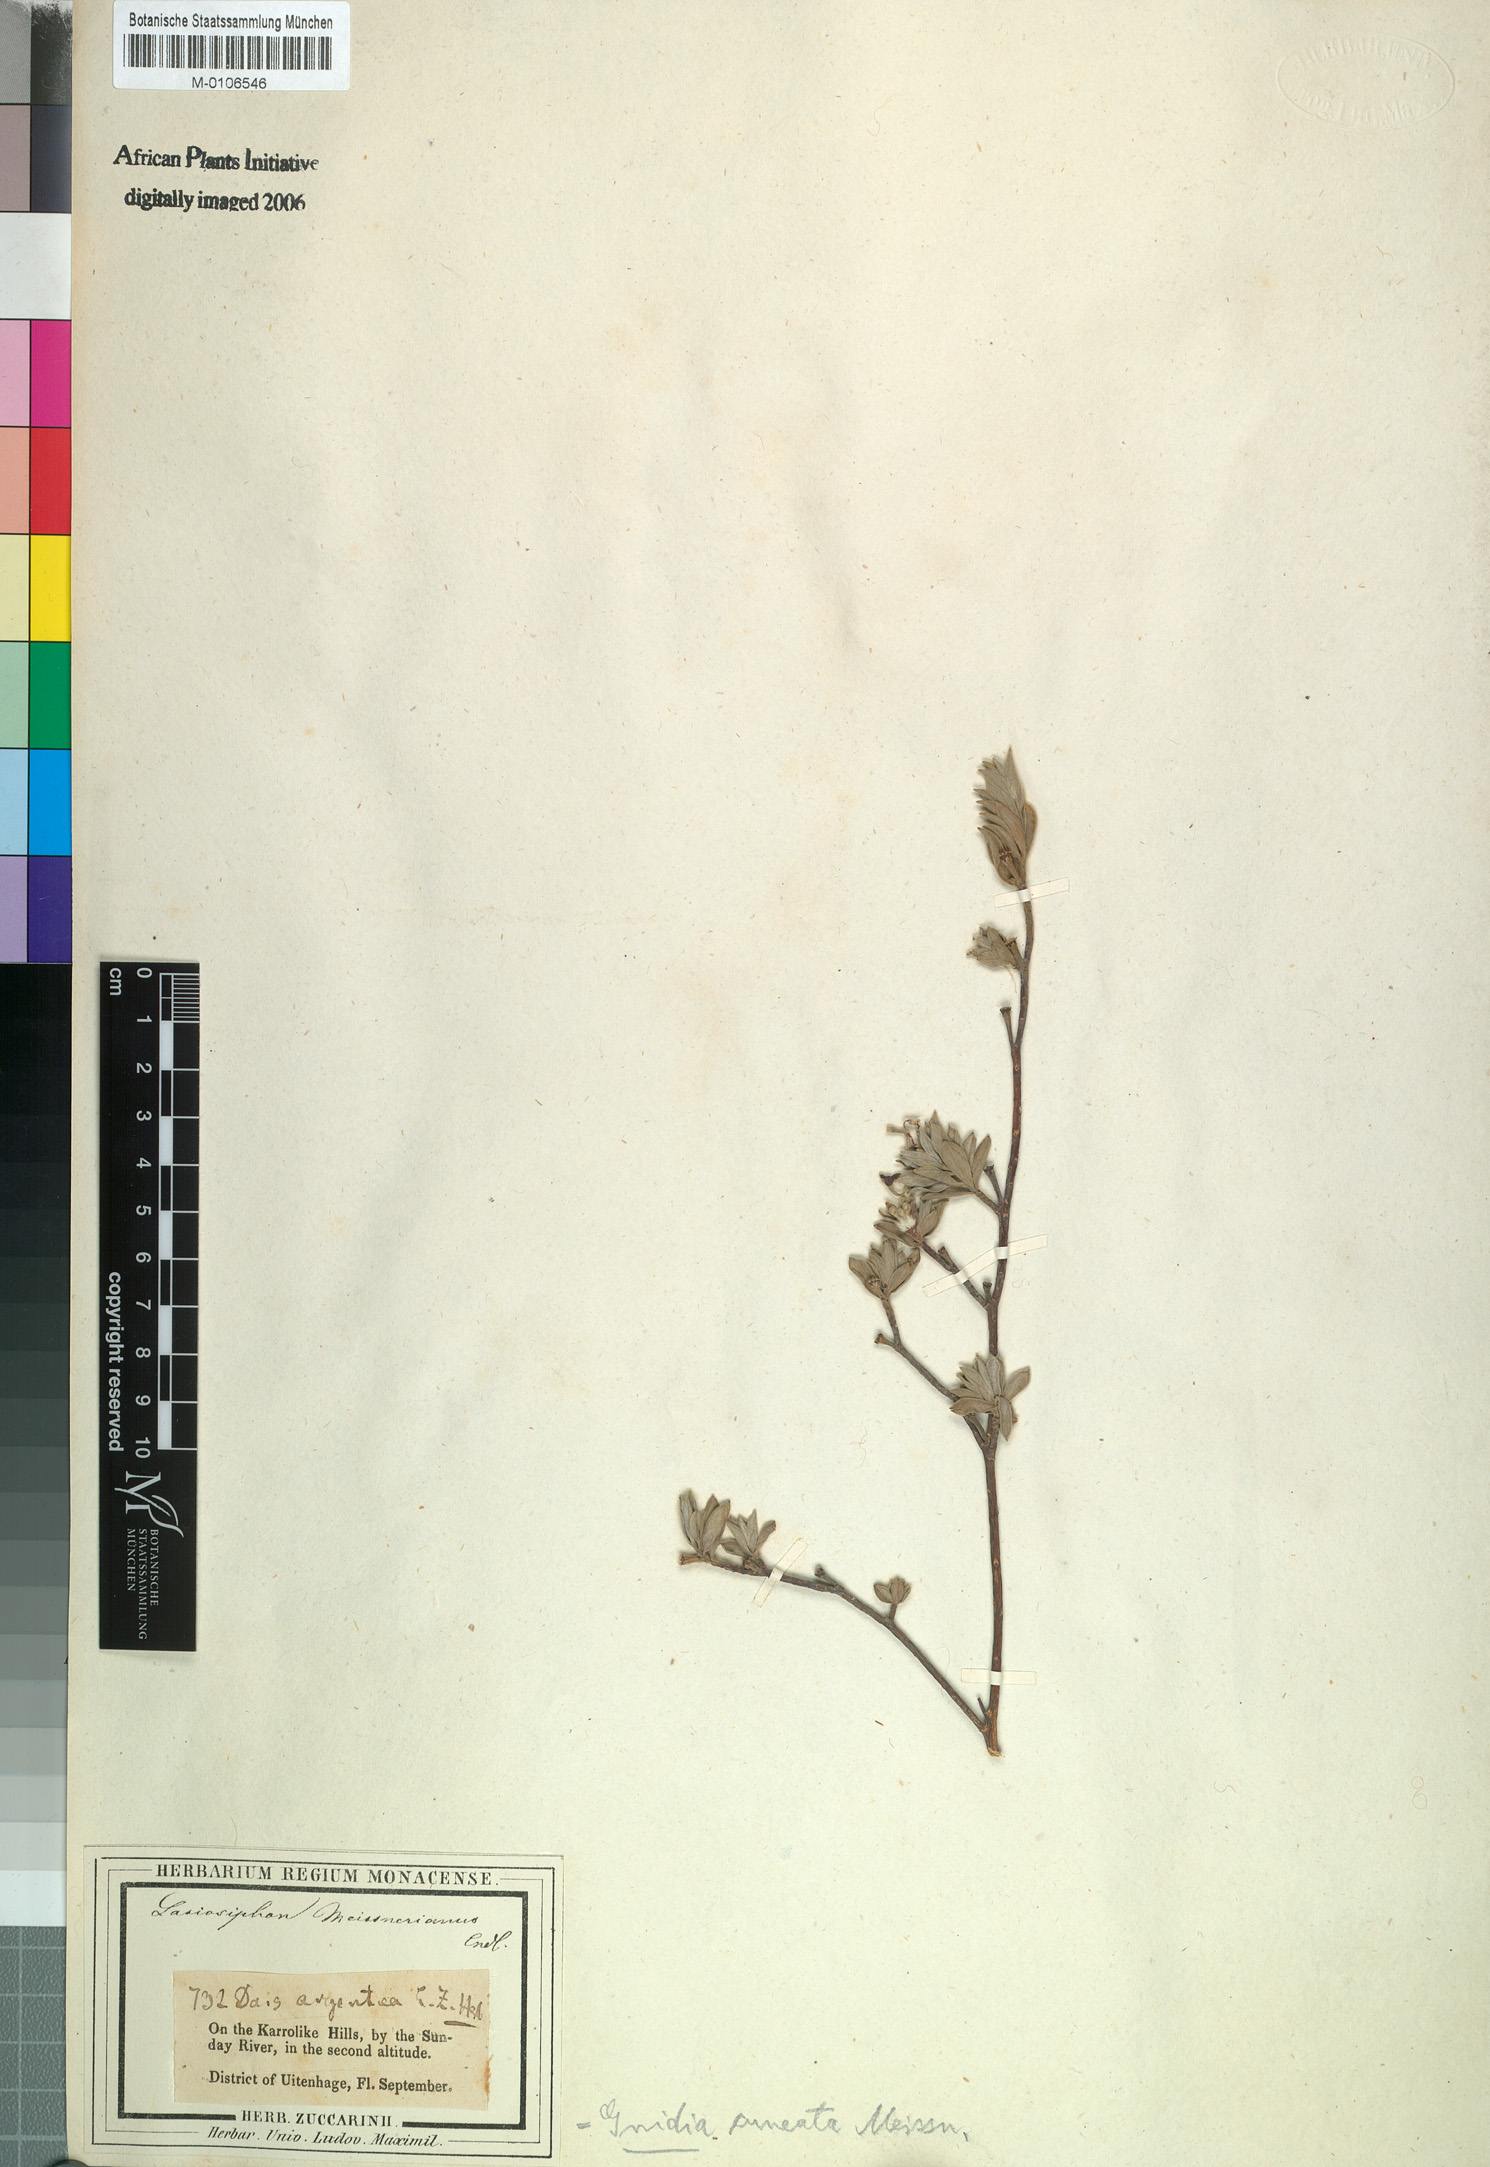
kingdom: Plantae
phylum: Tracheophyta
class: Magnoliopsida
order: Malvales
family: Thymelaeaceae
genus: Gnidia
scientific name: Gnidia cuneata
